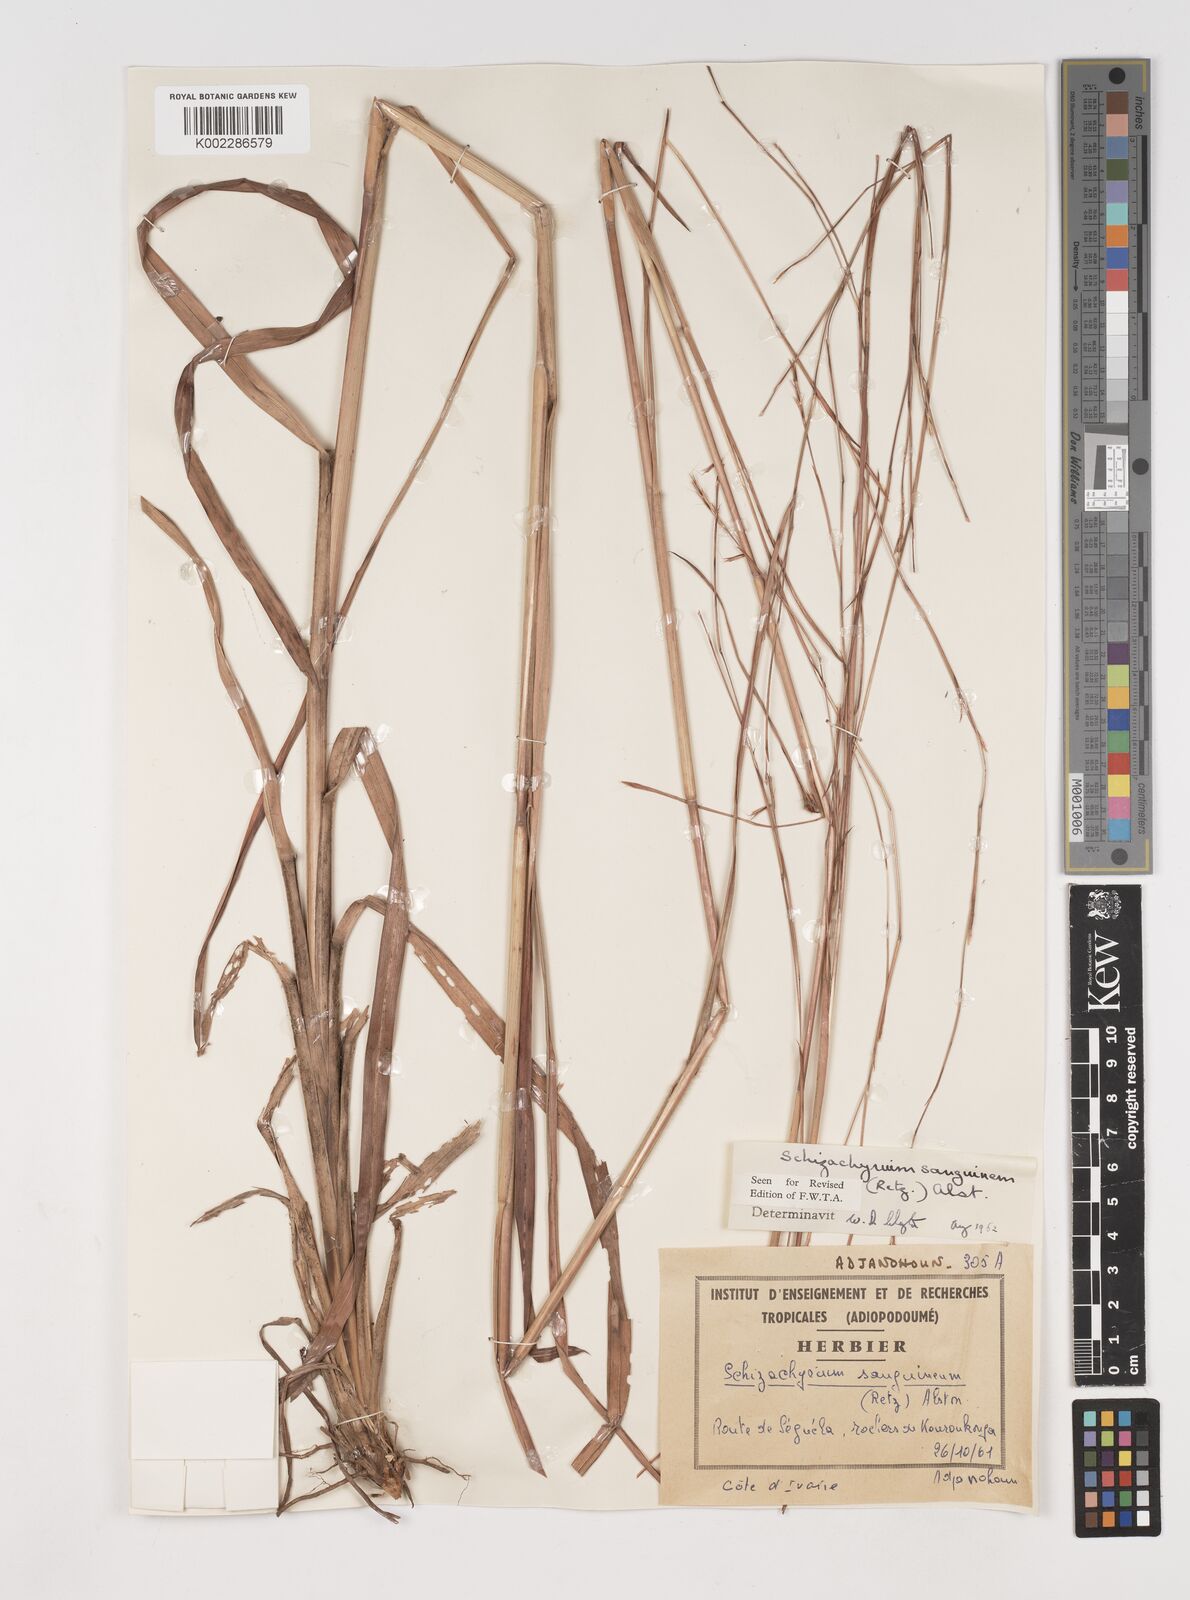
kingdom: Plantae
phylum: Tracheophyta
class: Liliopsida
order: Poales
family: Poaceae
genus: Schizachyrium
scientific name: Schizachyrium sanguineum
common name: Crimson bluestem
